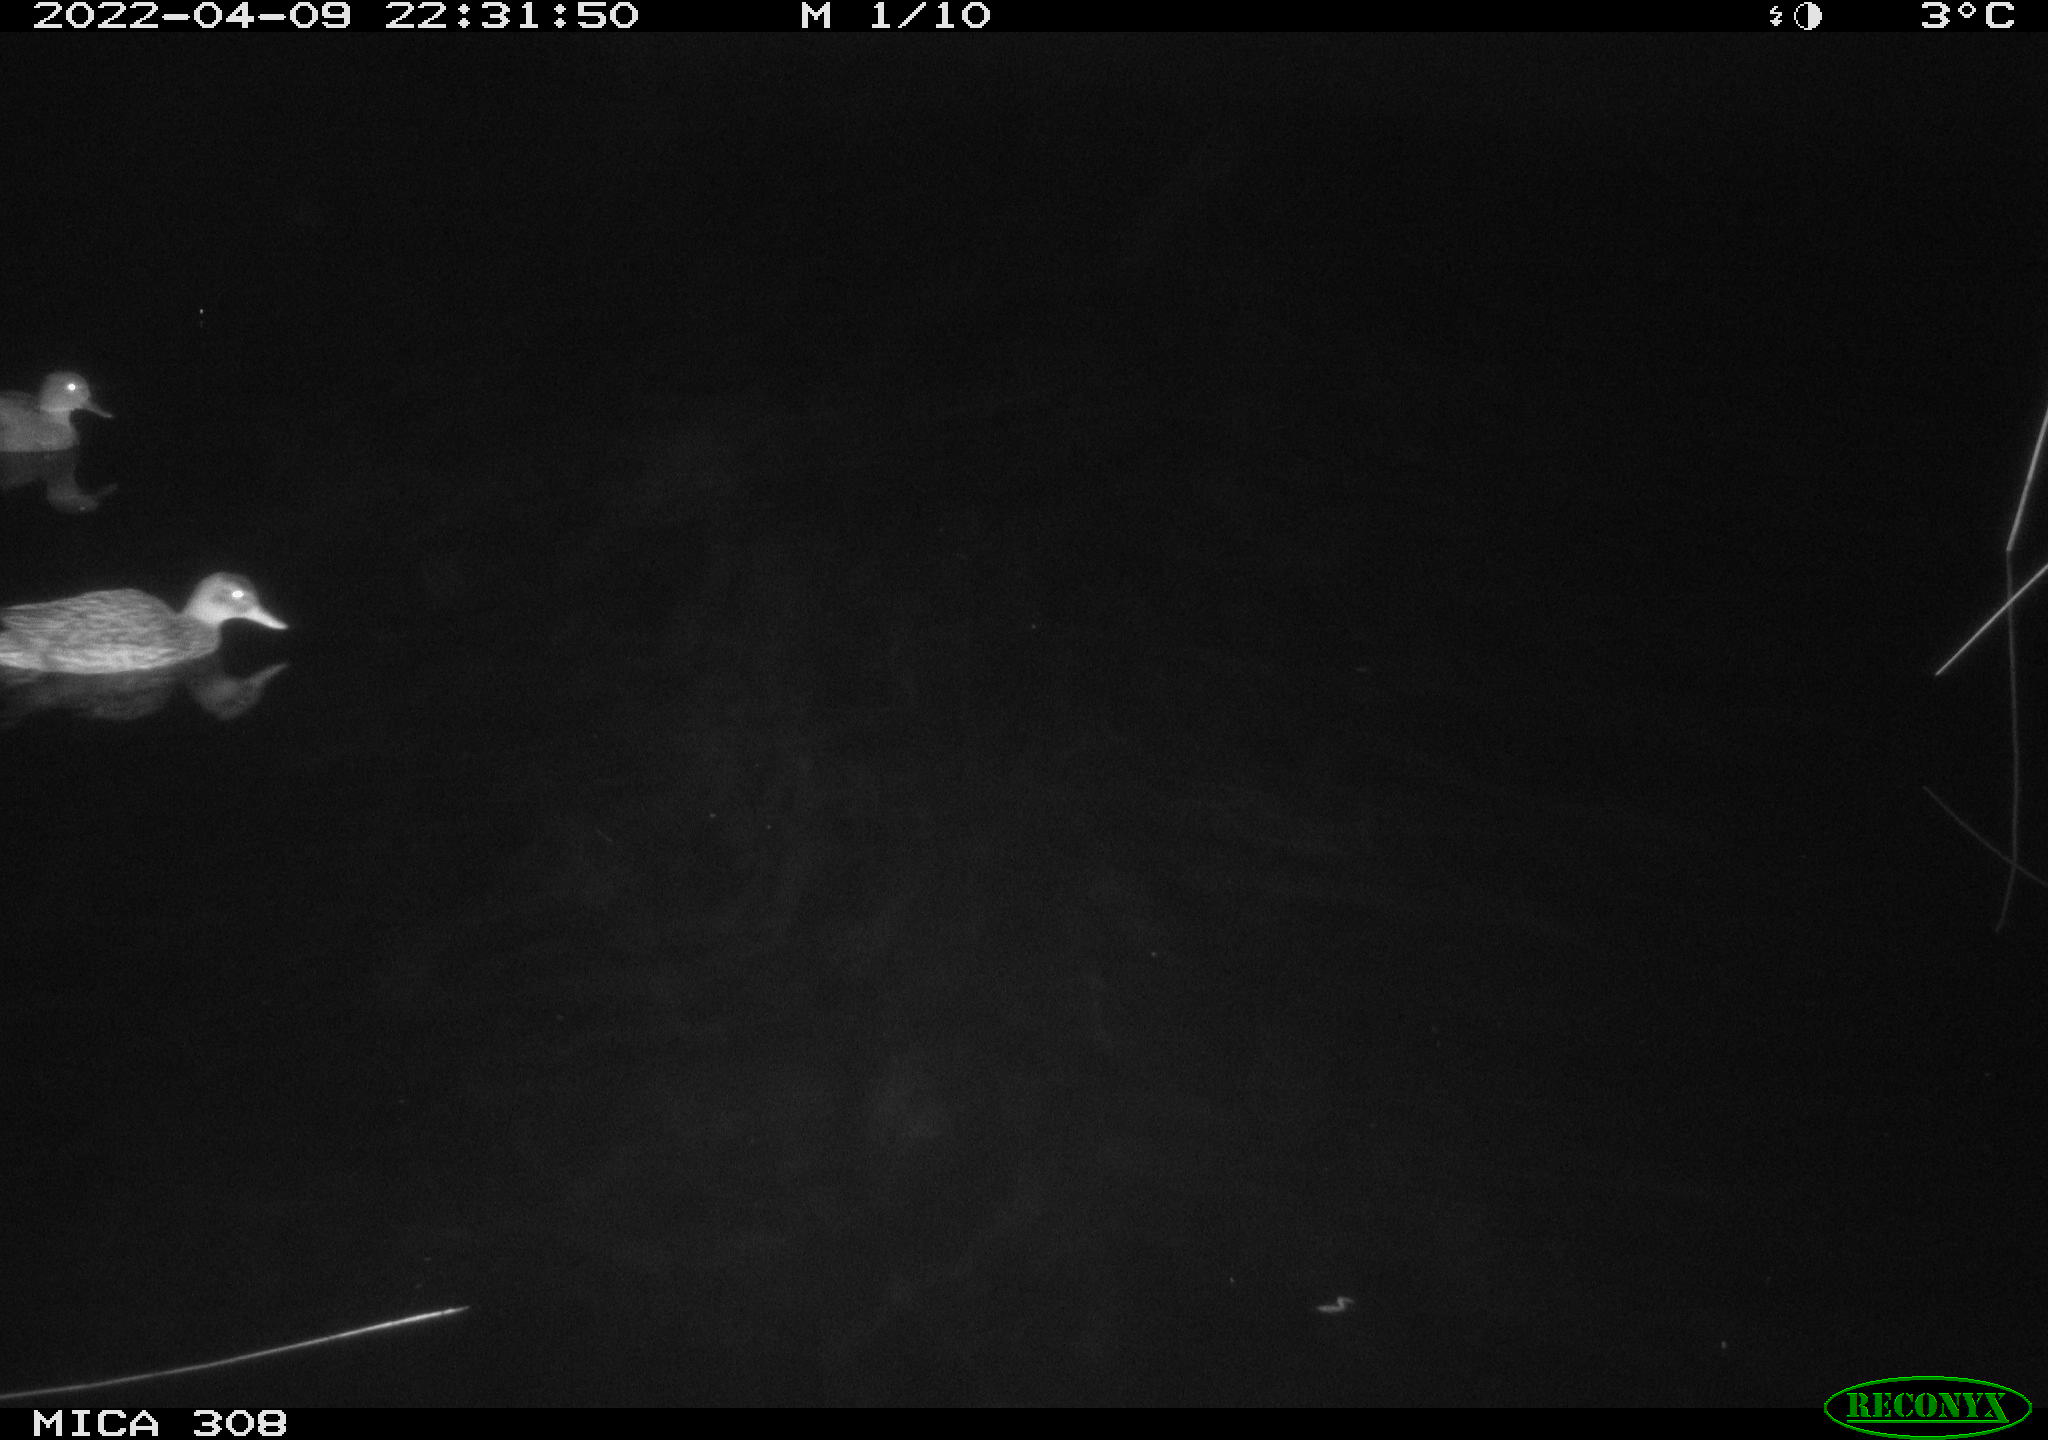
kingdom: Animalia
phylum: Chordata
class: Aves
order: Anseriformes
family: Anatidae
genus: Anas
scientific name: Anas platyrhynchos
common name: Mallard
